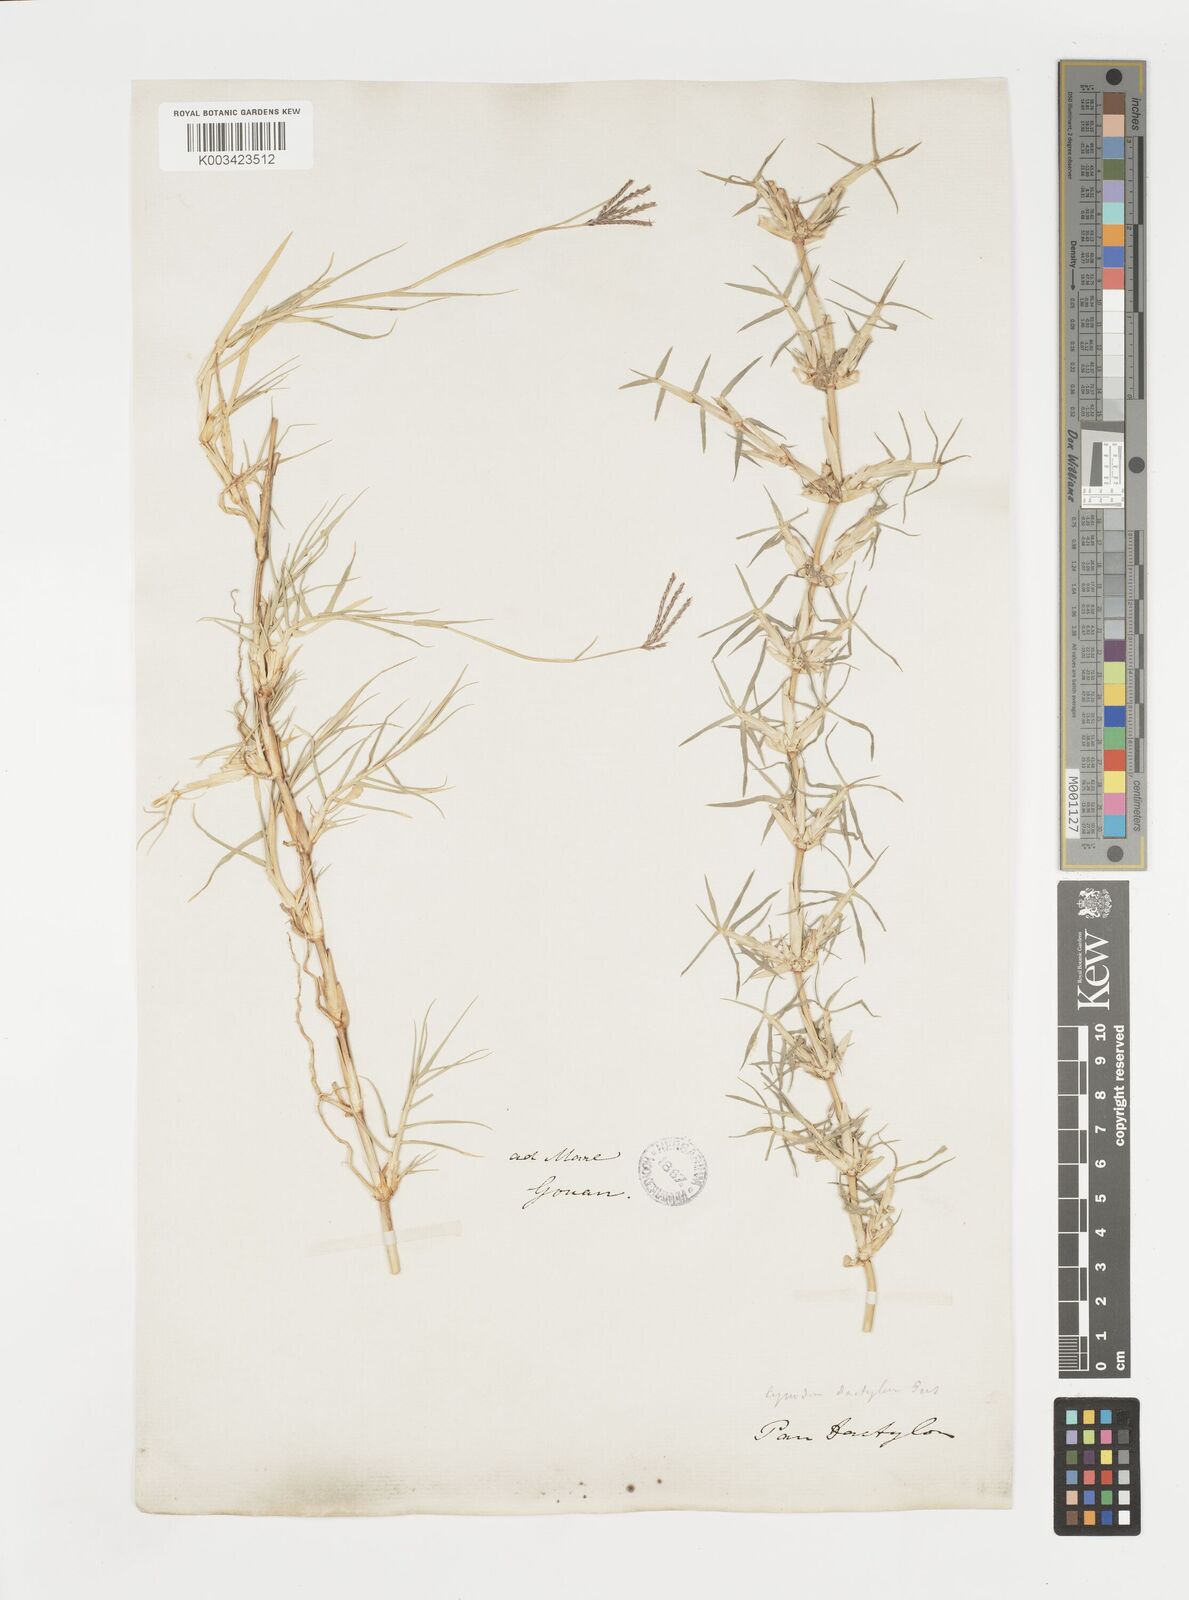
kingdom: Plantae
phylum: Tracheophyta
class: Liliopsida
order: Poales
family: Poaceae
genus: Cynodon
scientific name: Cynodon dactylon
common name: Bermuda grass
